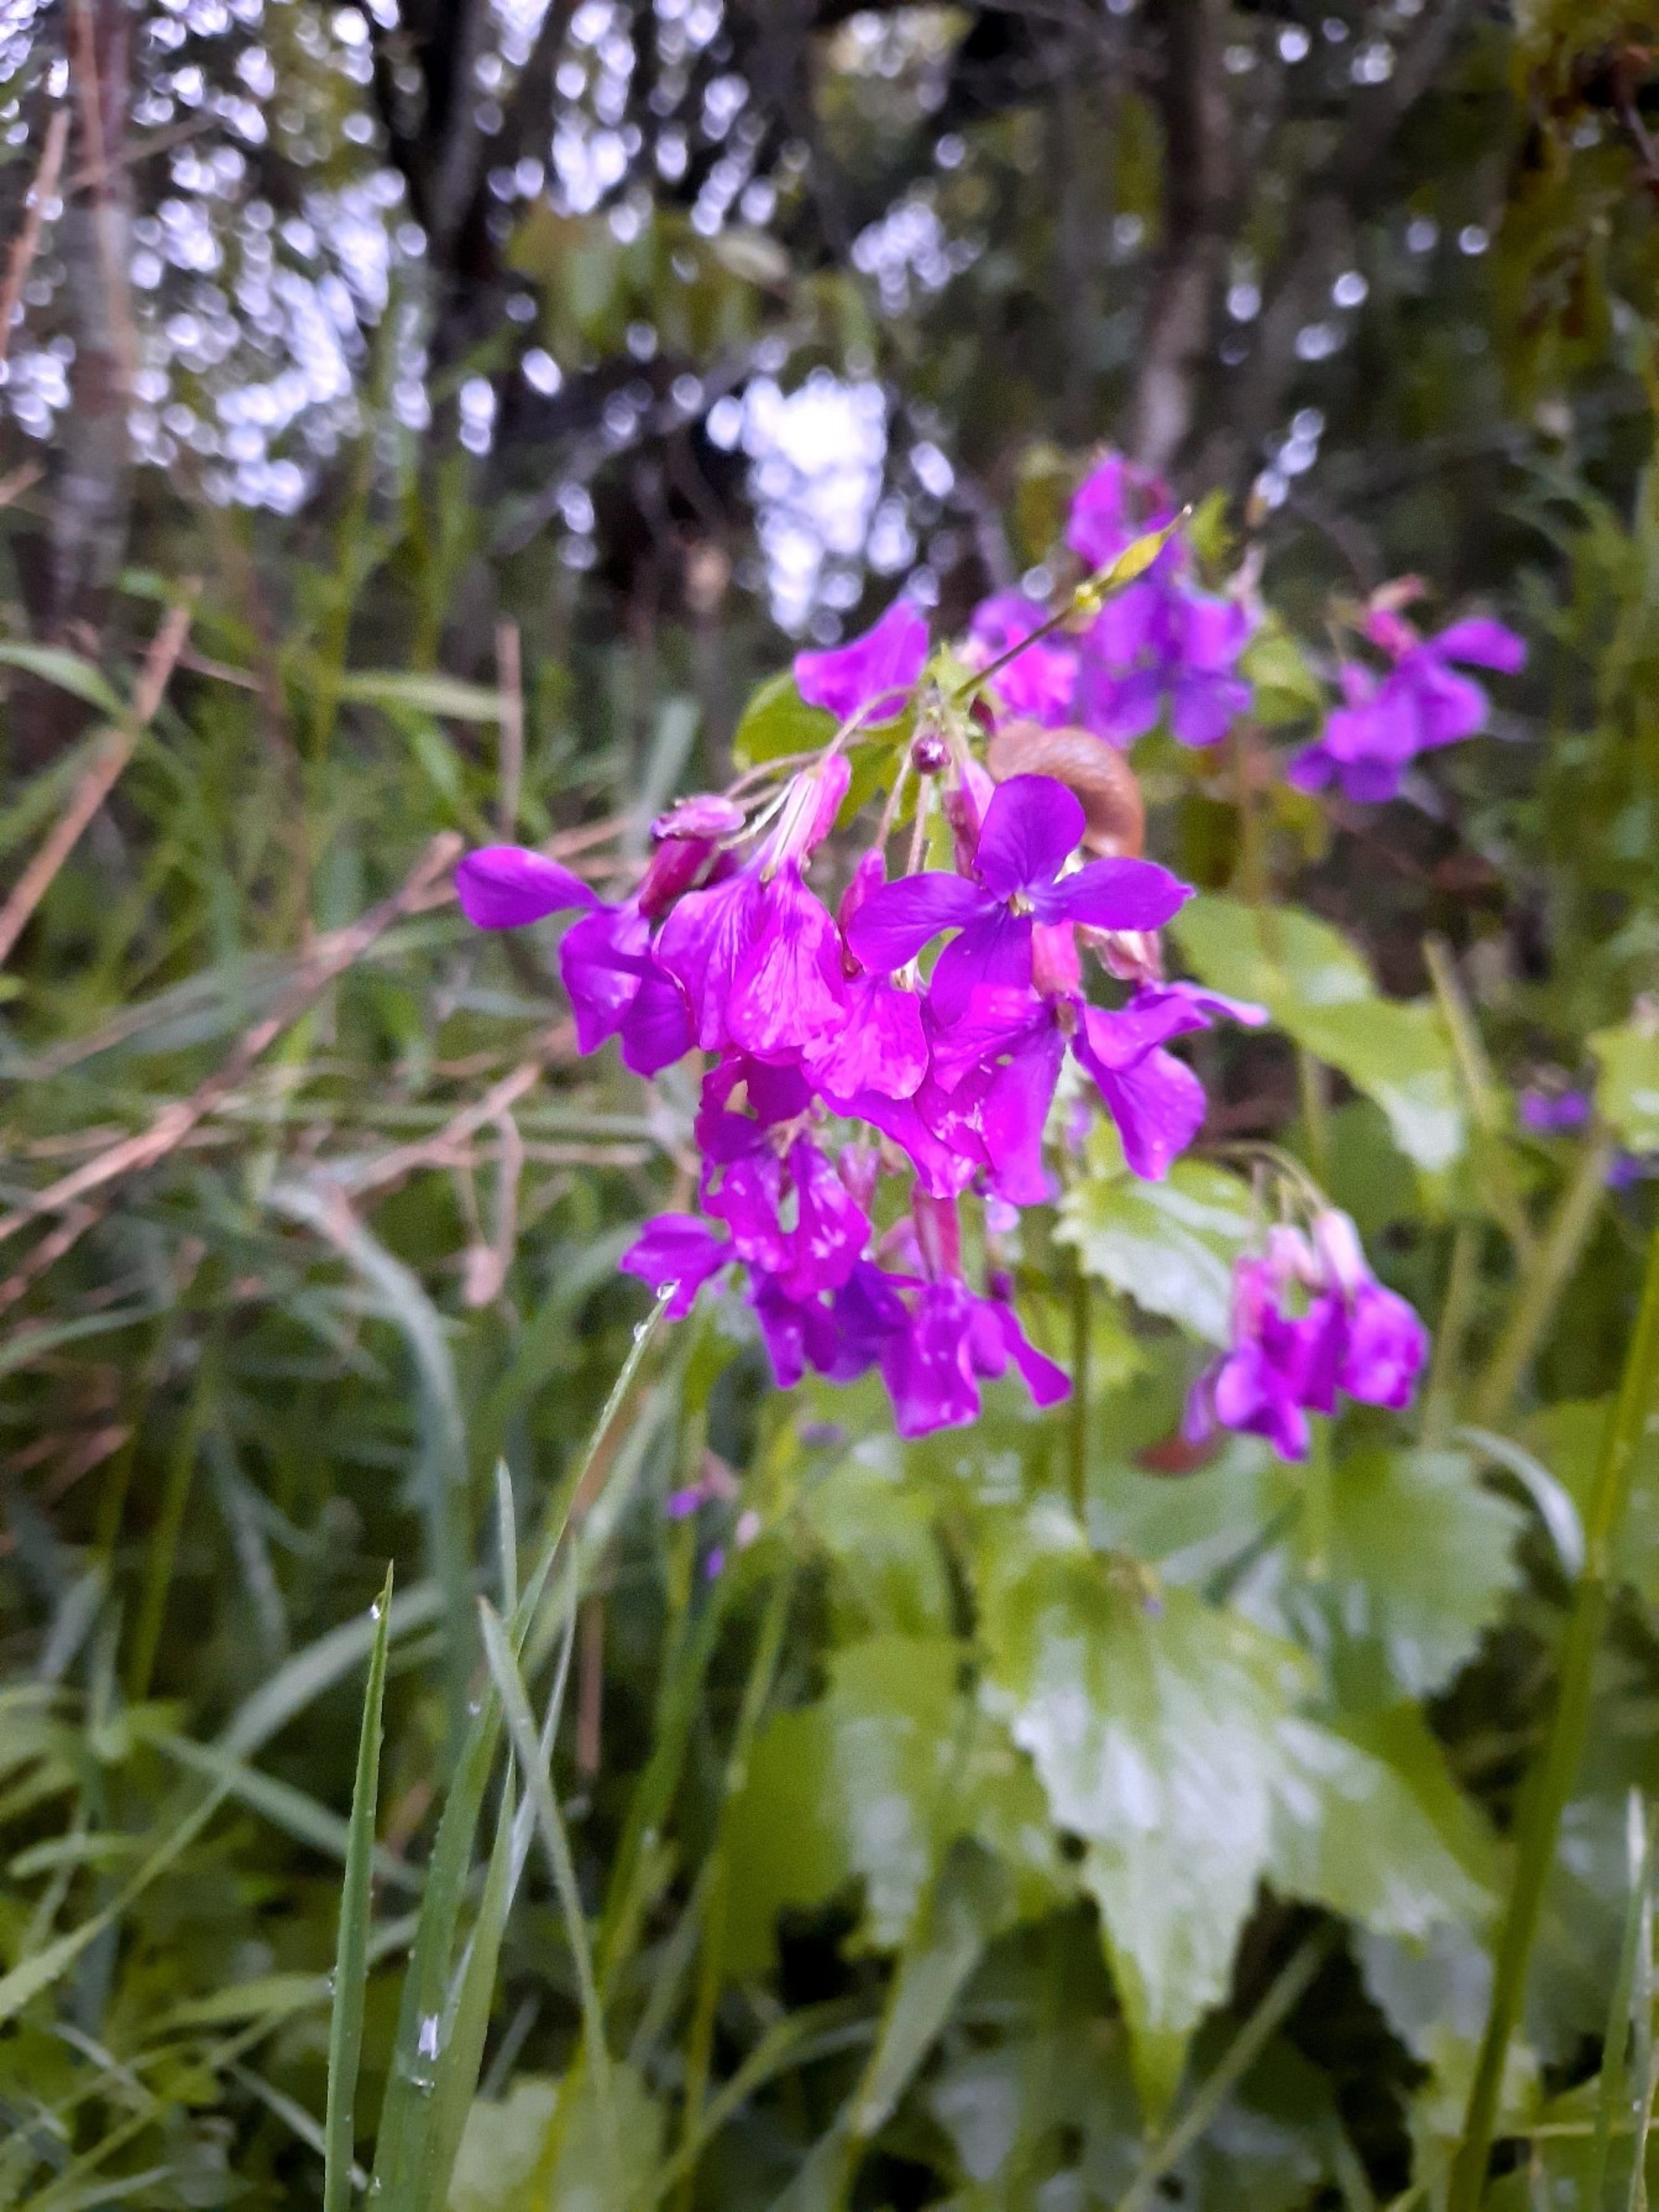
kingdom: Plantae
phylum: Tracheophyta
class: Magnoliopsida
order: Brassicales
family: Brassicaceae
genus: Lunaria
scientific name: Lunaria annua
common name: Judaspenge
